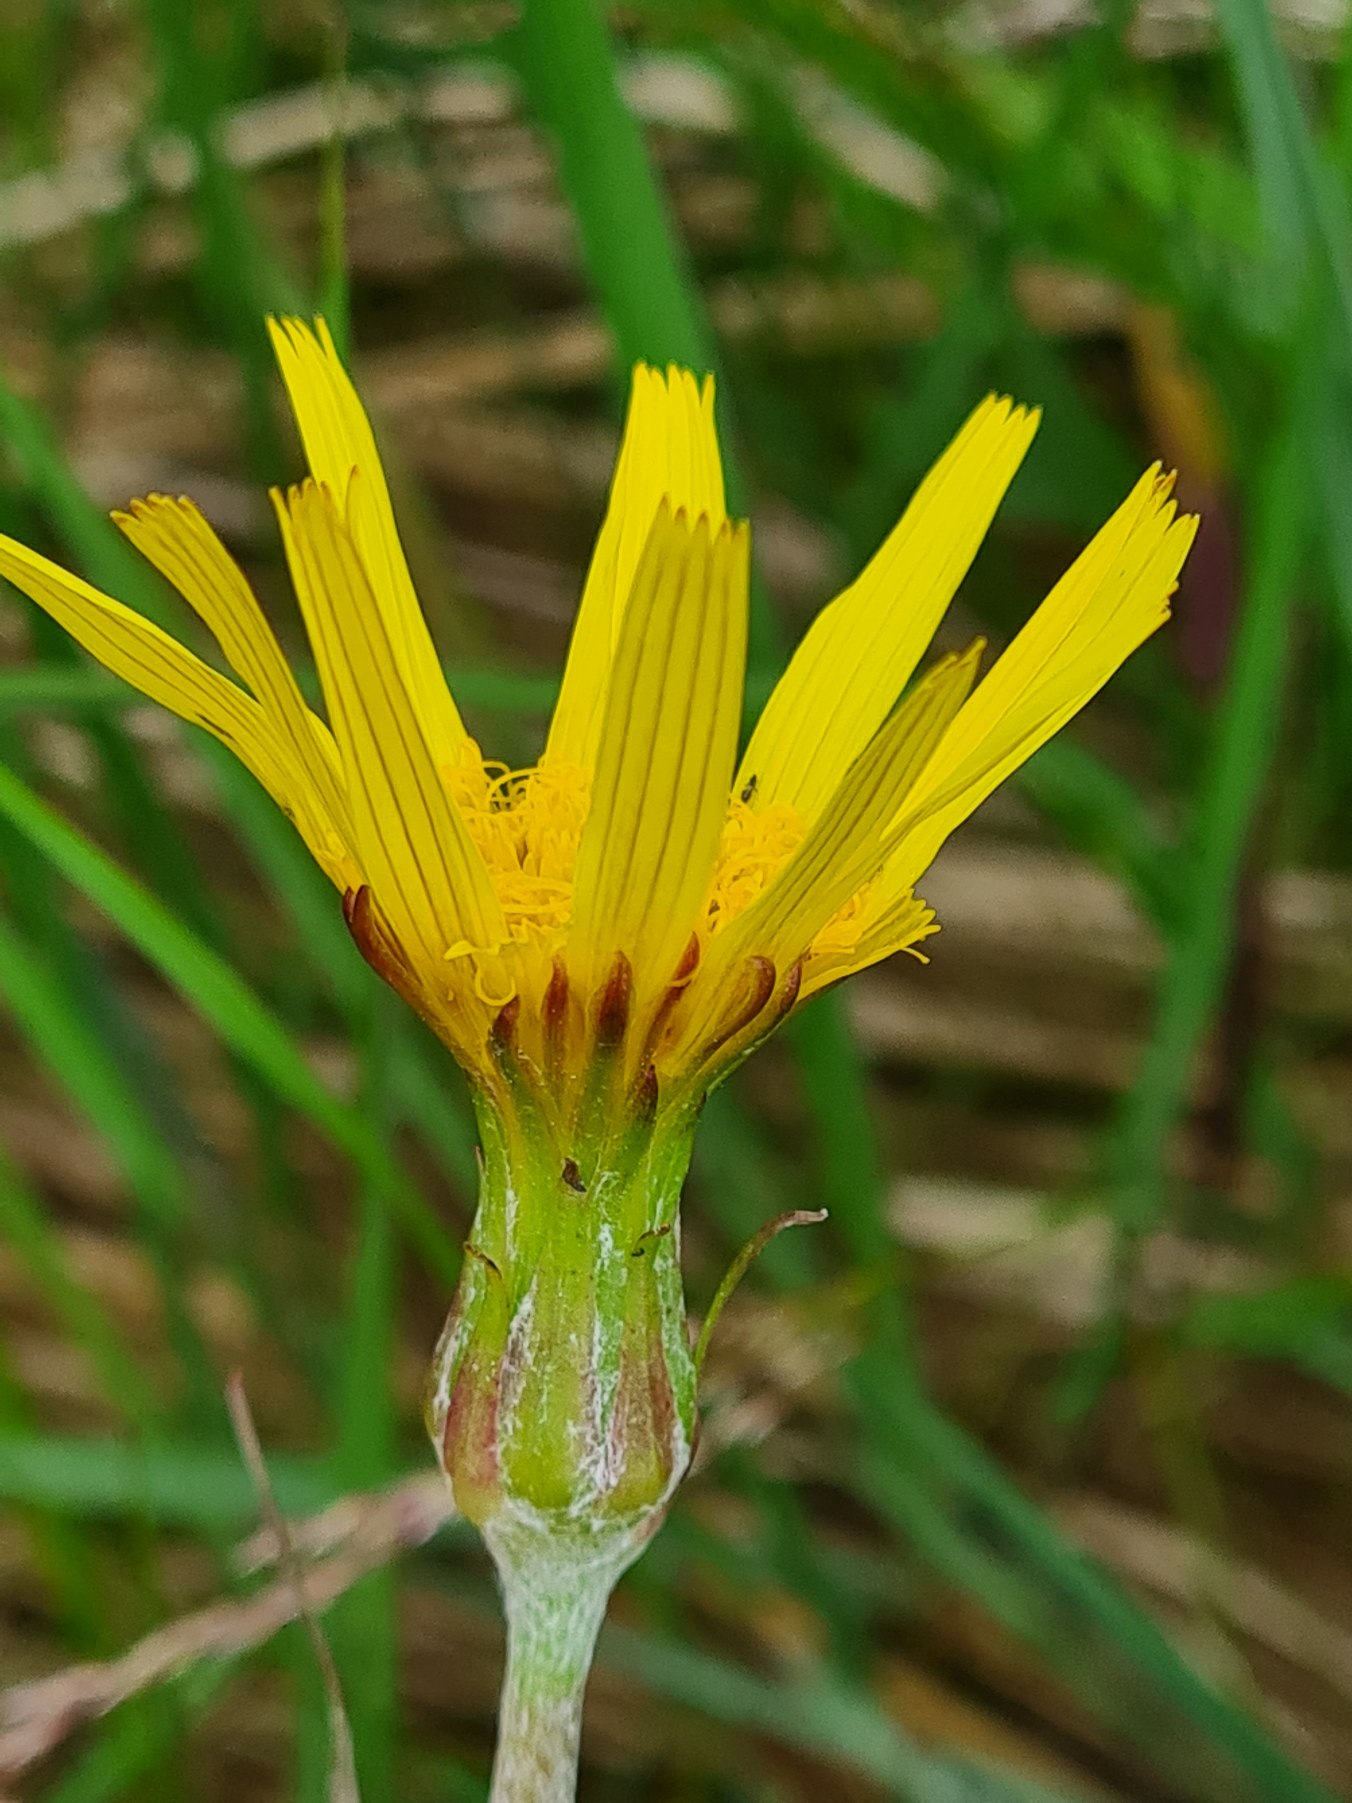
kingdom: Plantae
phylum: Tracheophyta
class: Magnoliopsida
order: Asterales
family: Asteraceae
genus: Arnica
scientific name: Arnica montana
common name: Guldblomme
